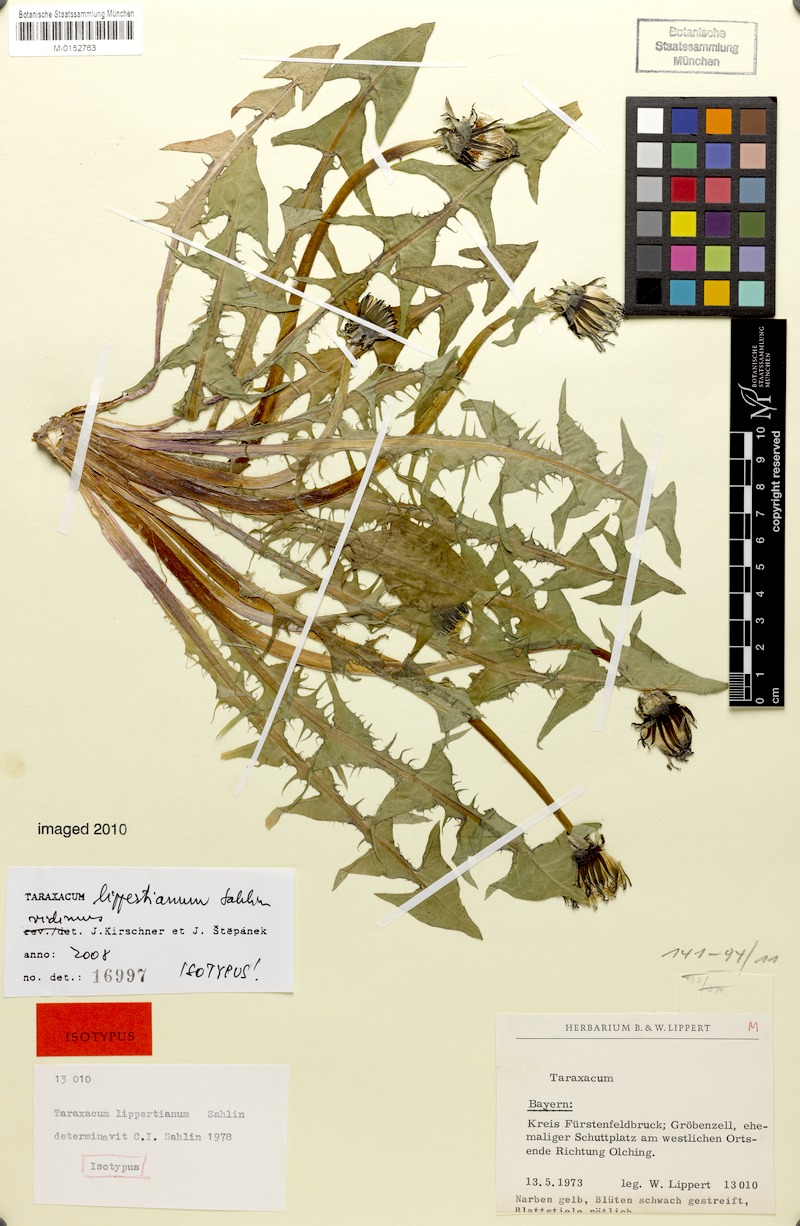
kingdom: Plantae
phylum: Tracheophyta
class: Magnoliopsida
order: Asterales
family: Asteraceae
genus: Taraxacum
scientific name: Taraxacum lippertianum
